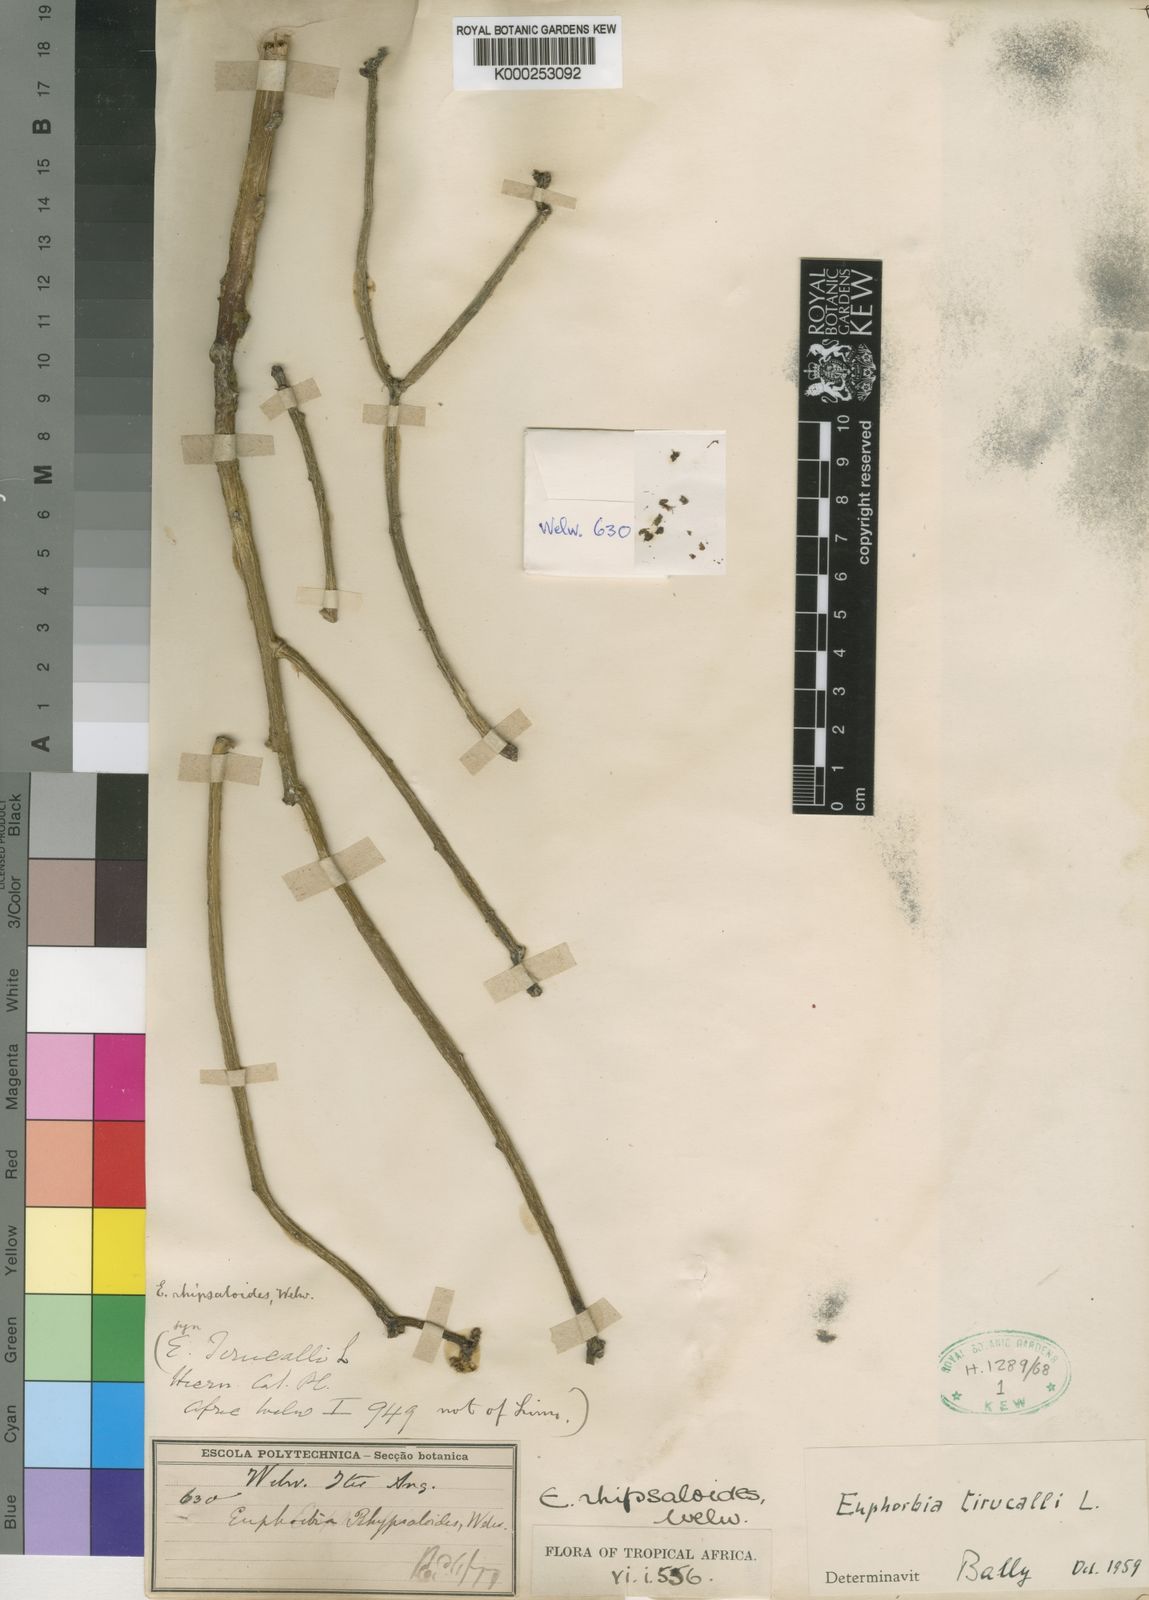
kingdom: Plantae
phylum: Tracheophyta
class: Magnoliopsida
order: Malpighiales
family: Euphorbiaceae
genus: Euphorbia
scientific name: Euphorbia tirucalli
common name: Indiantree spurge
